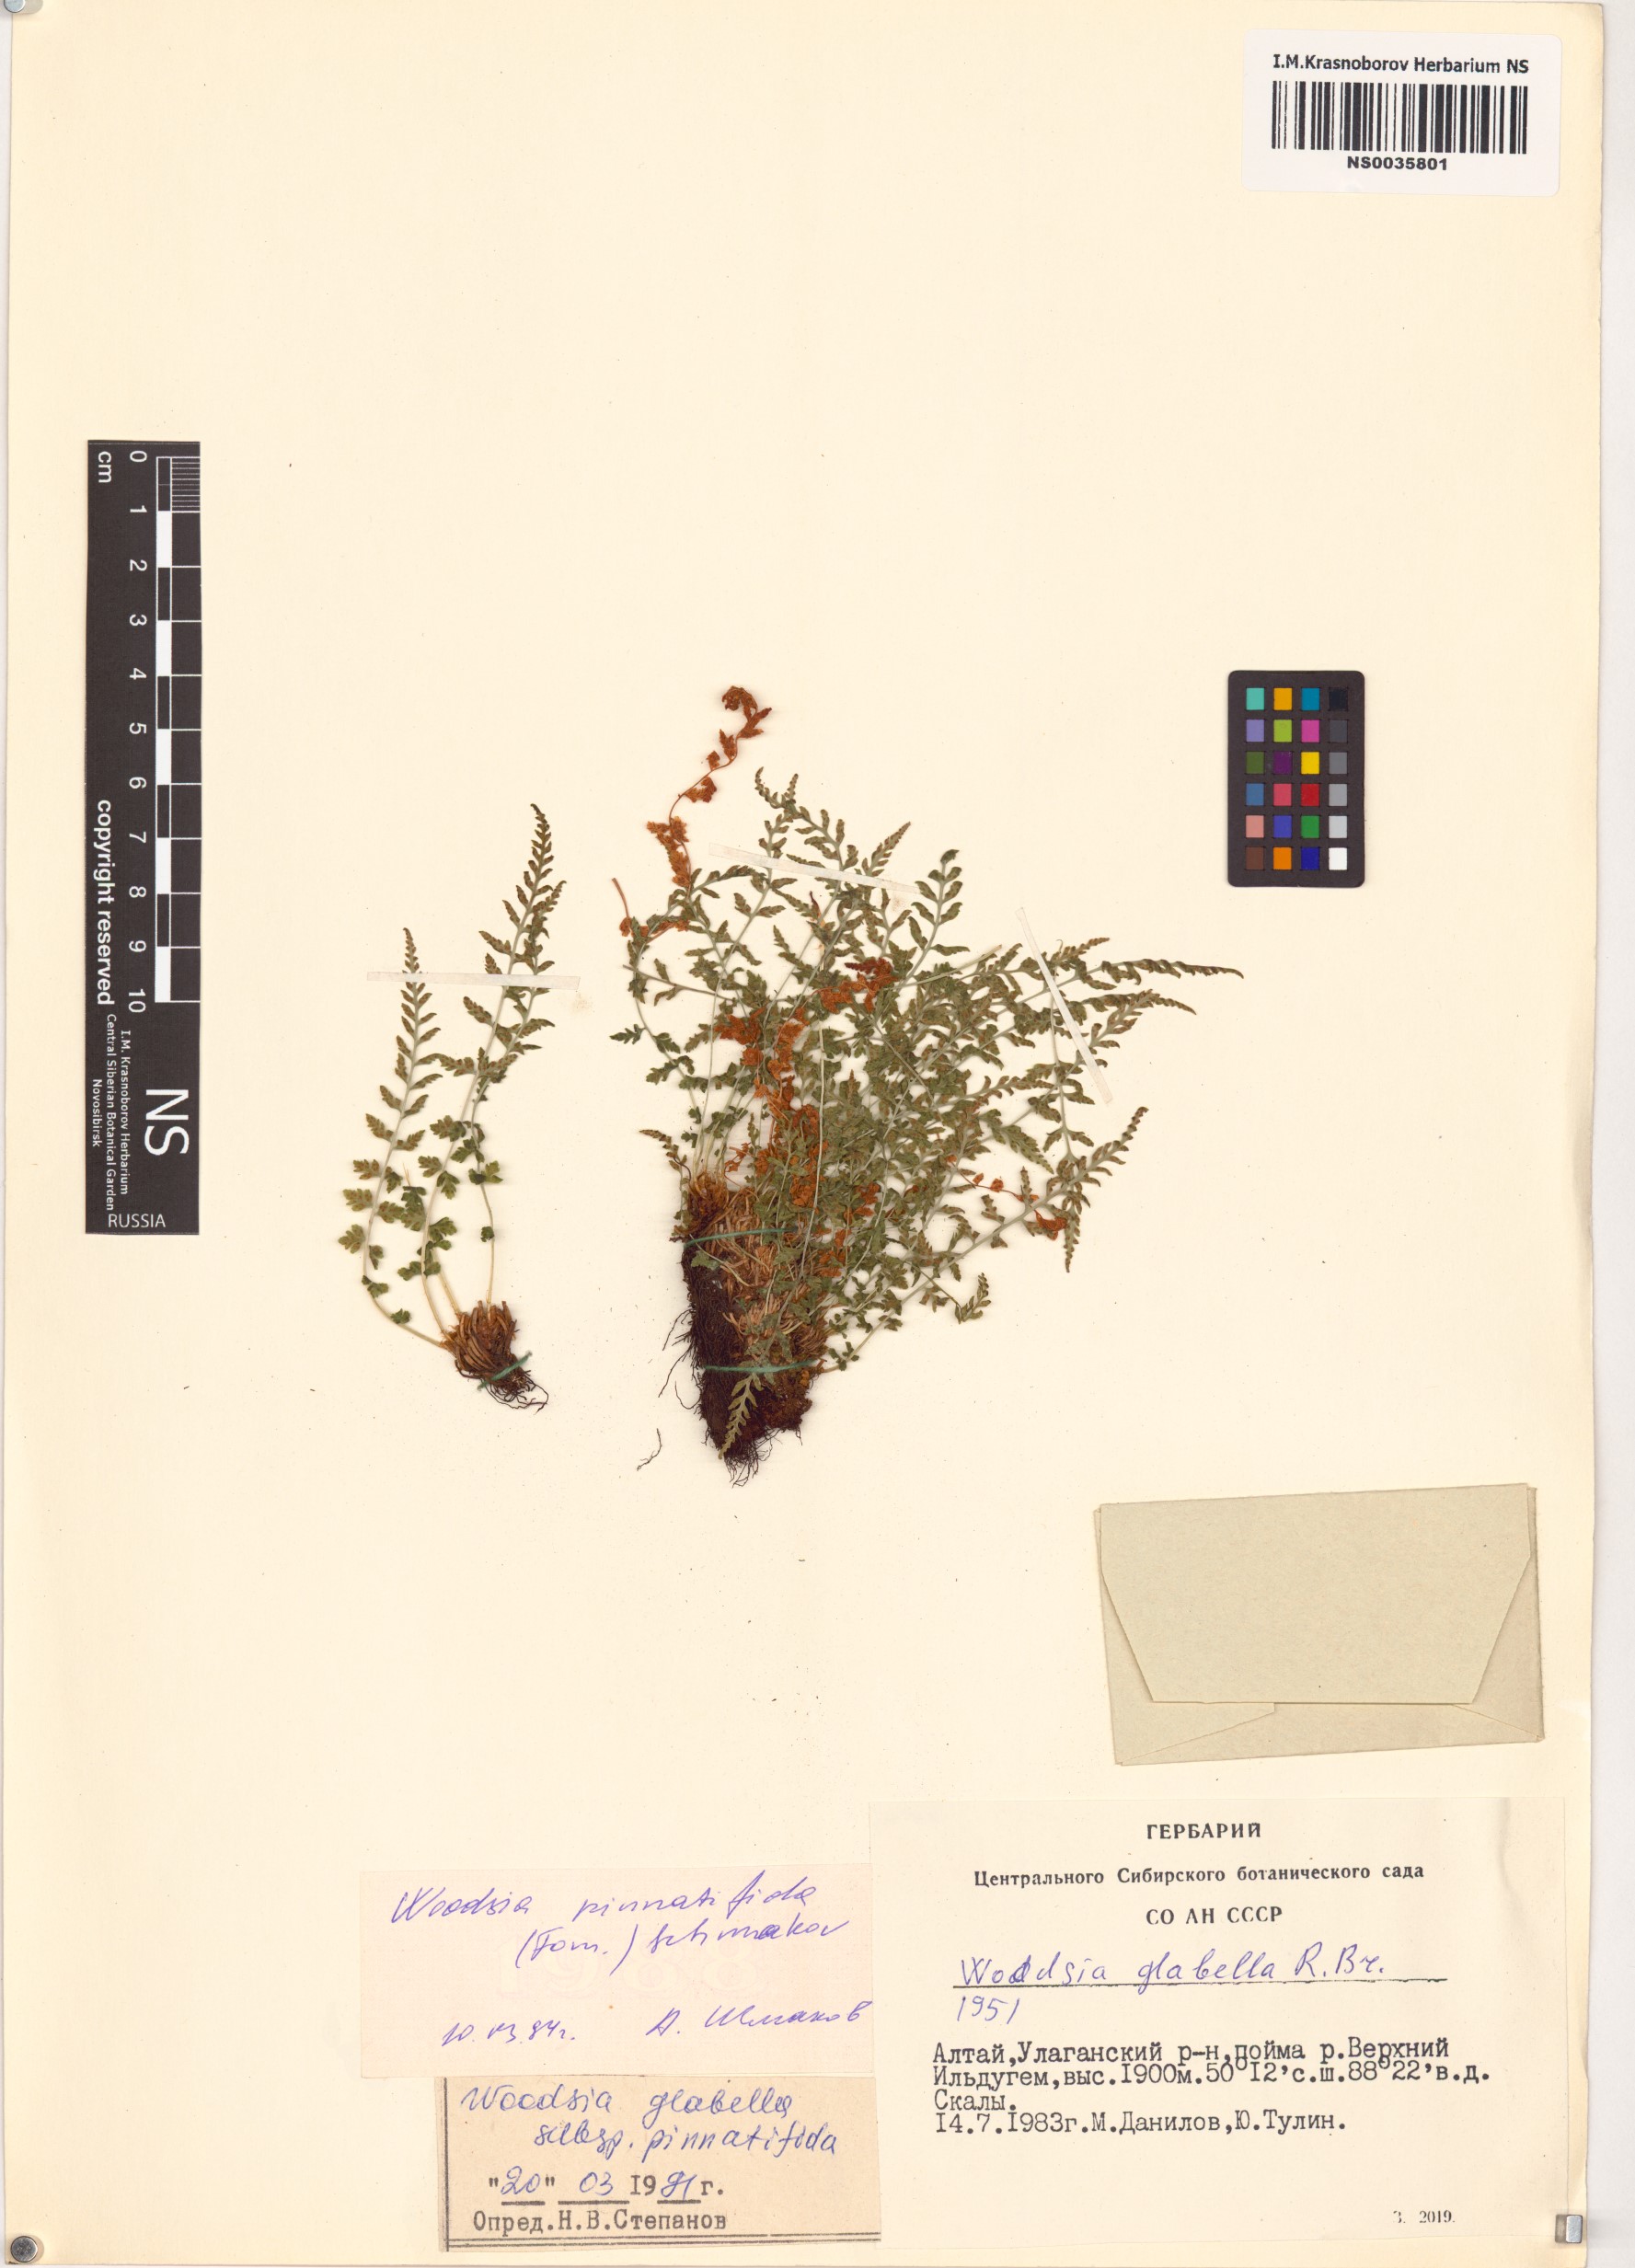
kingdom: Plantae
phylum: Tracheophyta
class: Polypodiopsida
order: Polypodiales
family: Woodsiaceae
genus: Woodsia
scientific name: Woodsia
